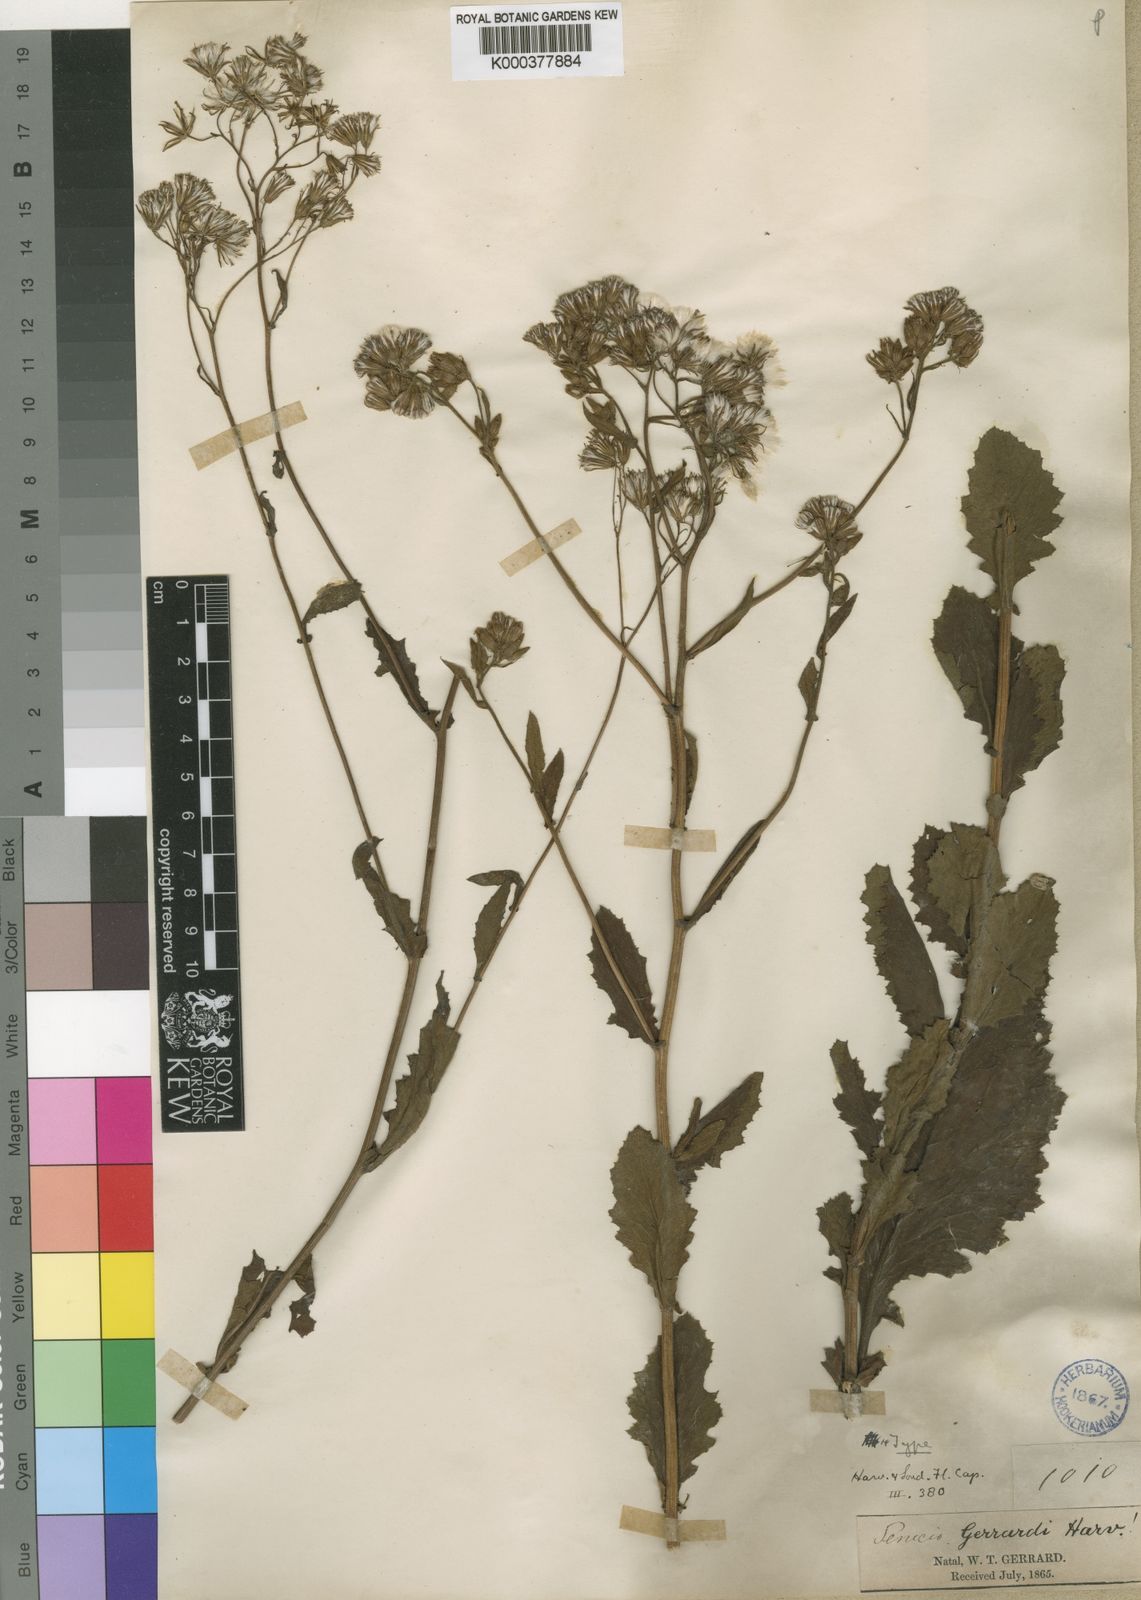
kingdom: Plantae
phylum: Tracheophyta
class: Magnoliopsida
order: Asterales
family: Asteraceae
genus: Senecio
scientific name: Senecio gerrardii
